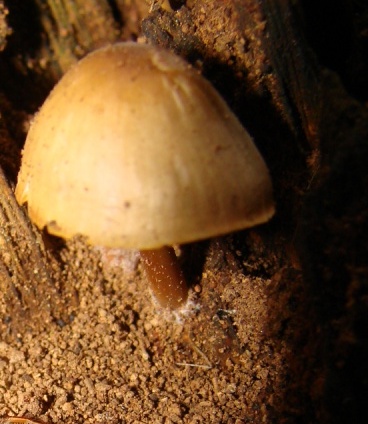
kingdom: Fungi
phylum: Basidiomycota
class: Agaricomycetes
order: Agaricales
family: Mycenaceae
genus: Mycena
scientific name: Mycena inclinata
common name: nikkende huesvamp
